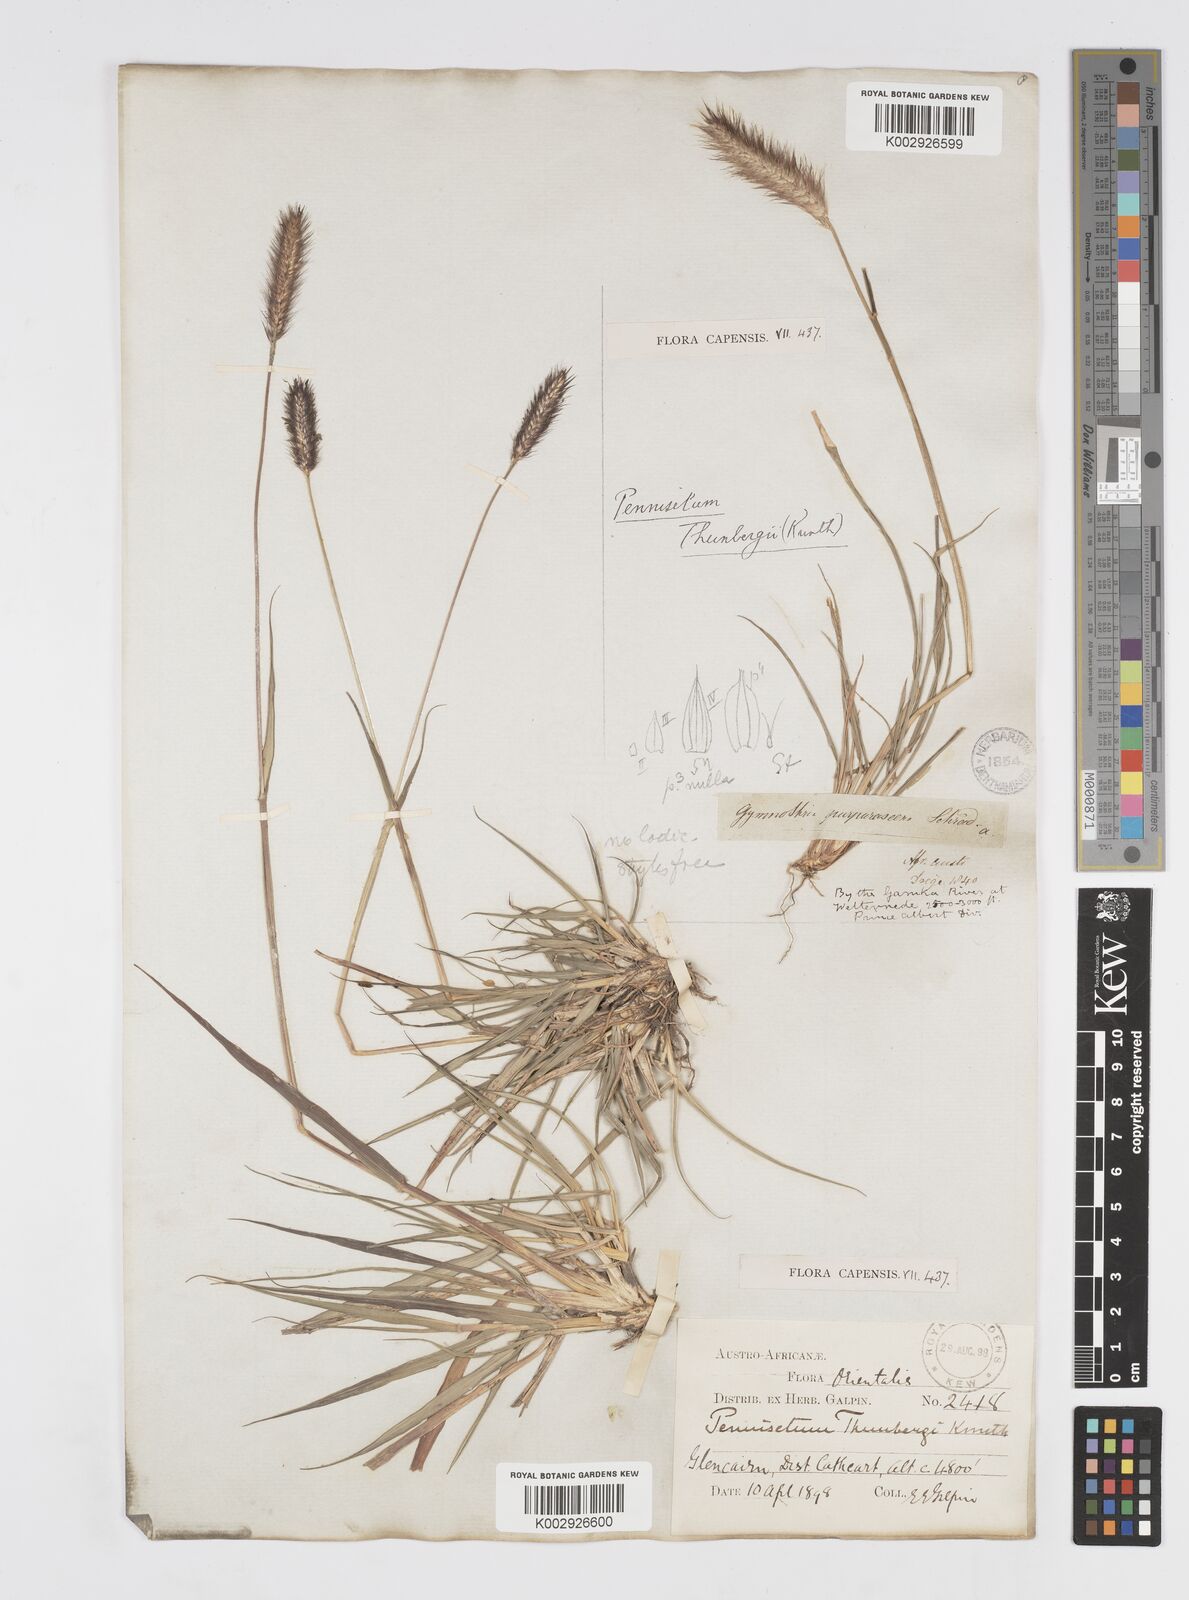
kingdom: Plantae
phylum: Tracheophyta
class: Liliopsida
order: Poales
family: Poaceae
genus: Cenchrus
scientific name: Cenchrus geniculatus
